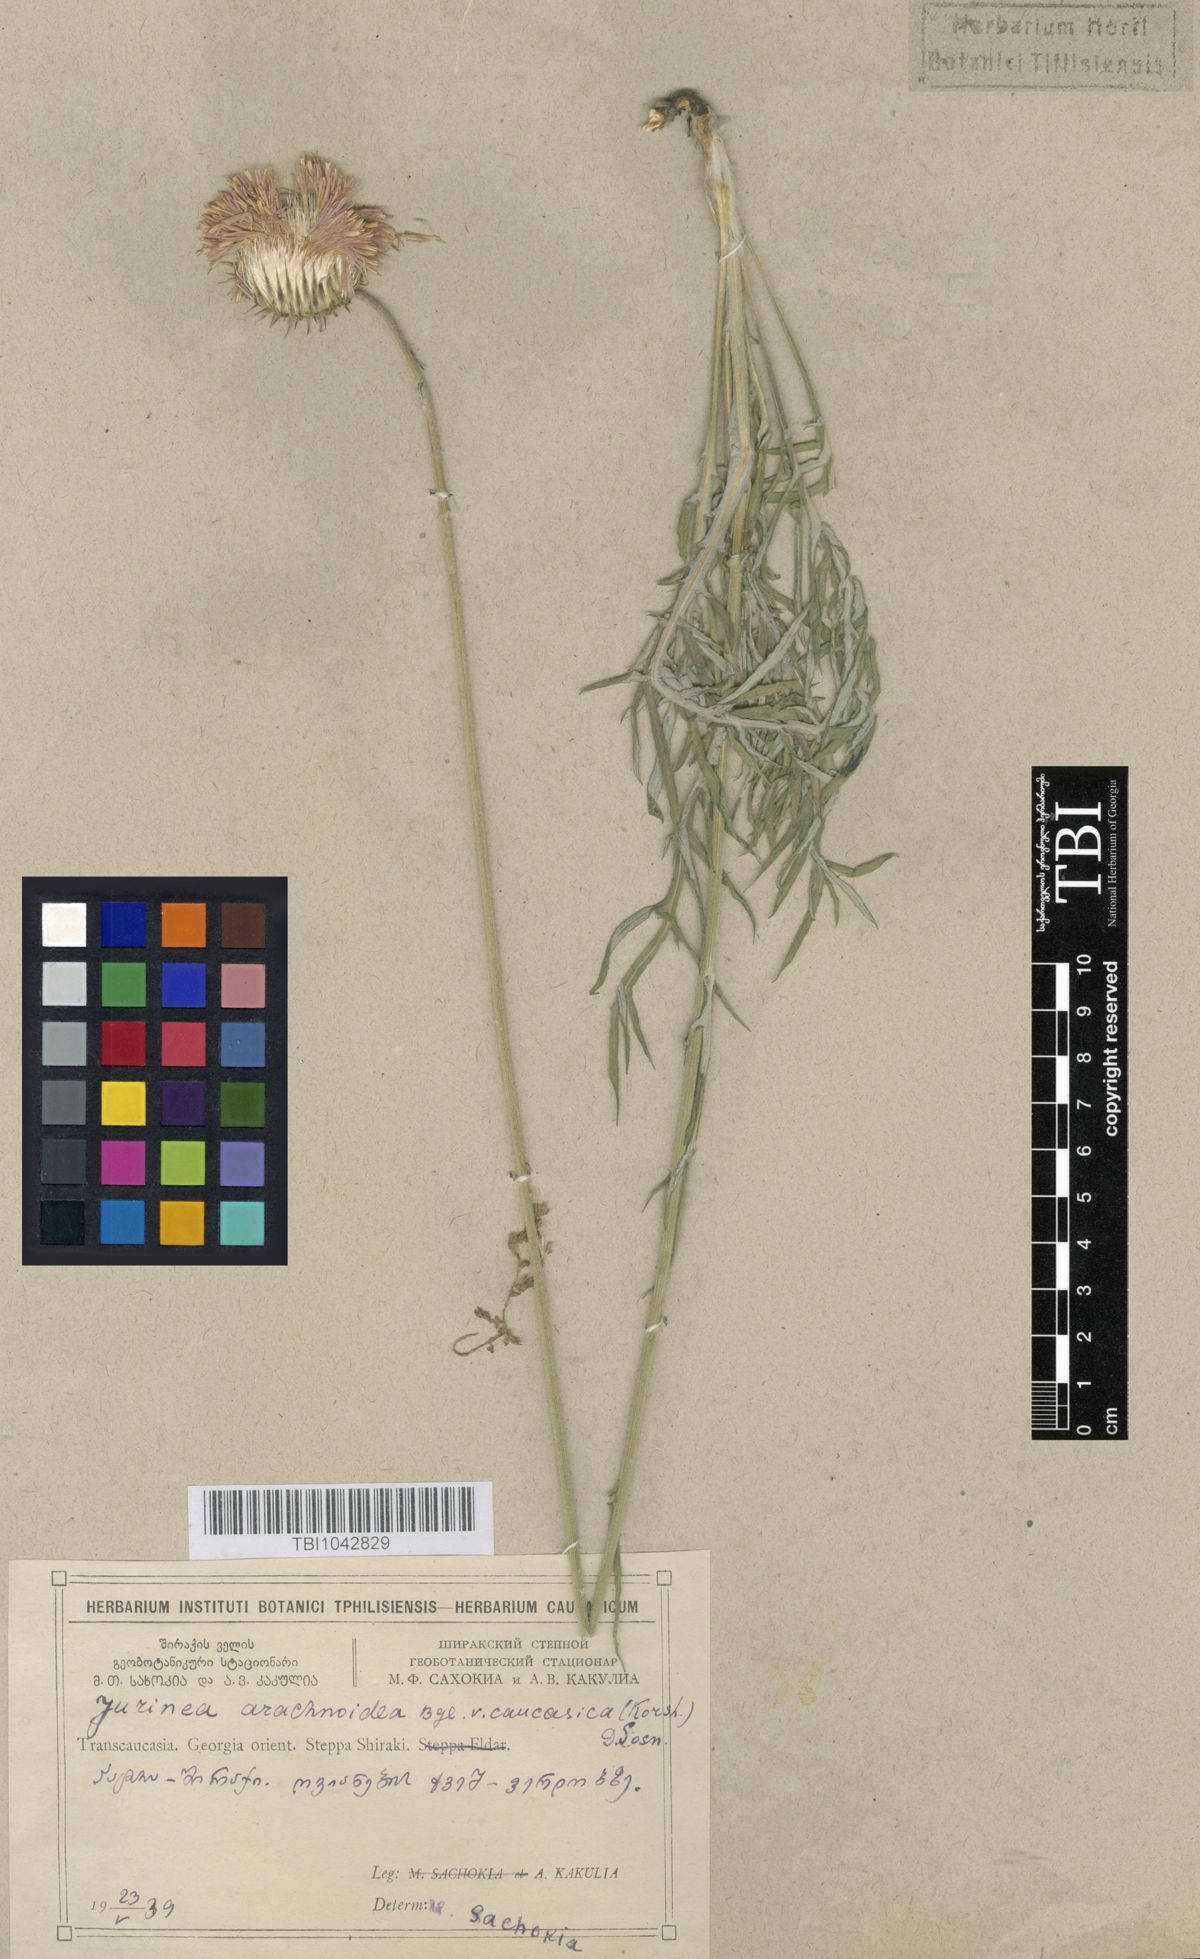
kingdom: Plantae
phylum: Tracheophyta
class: Magnoliopsida
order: Asterales
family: Asteraceae
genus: Jurinea
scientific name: Jurinea blanda
